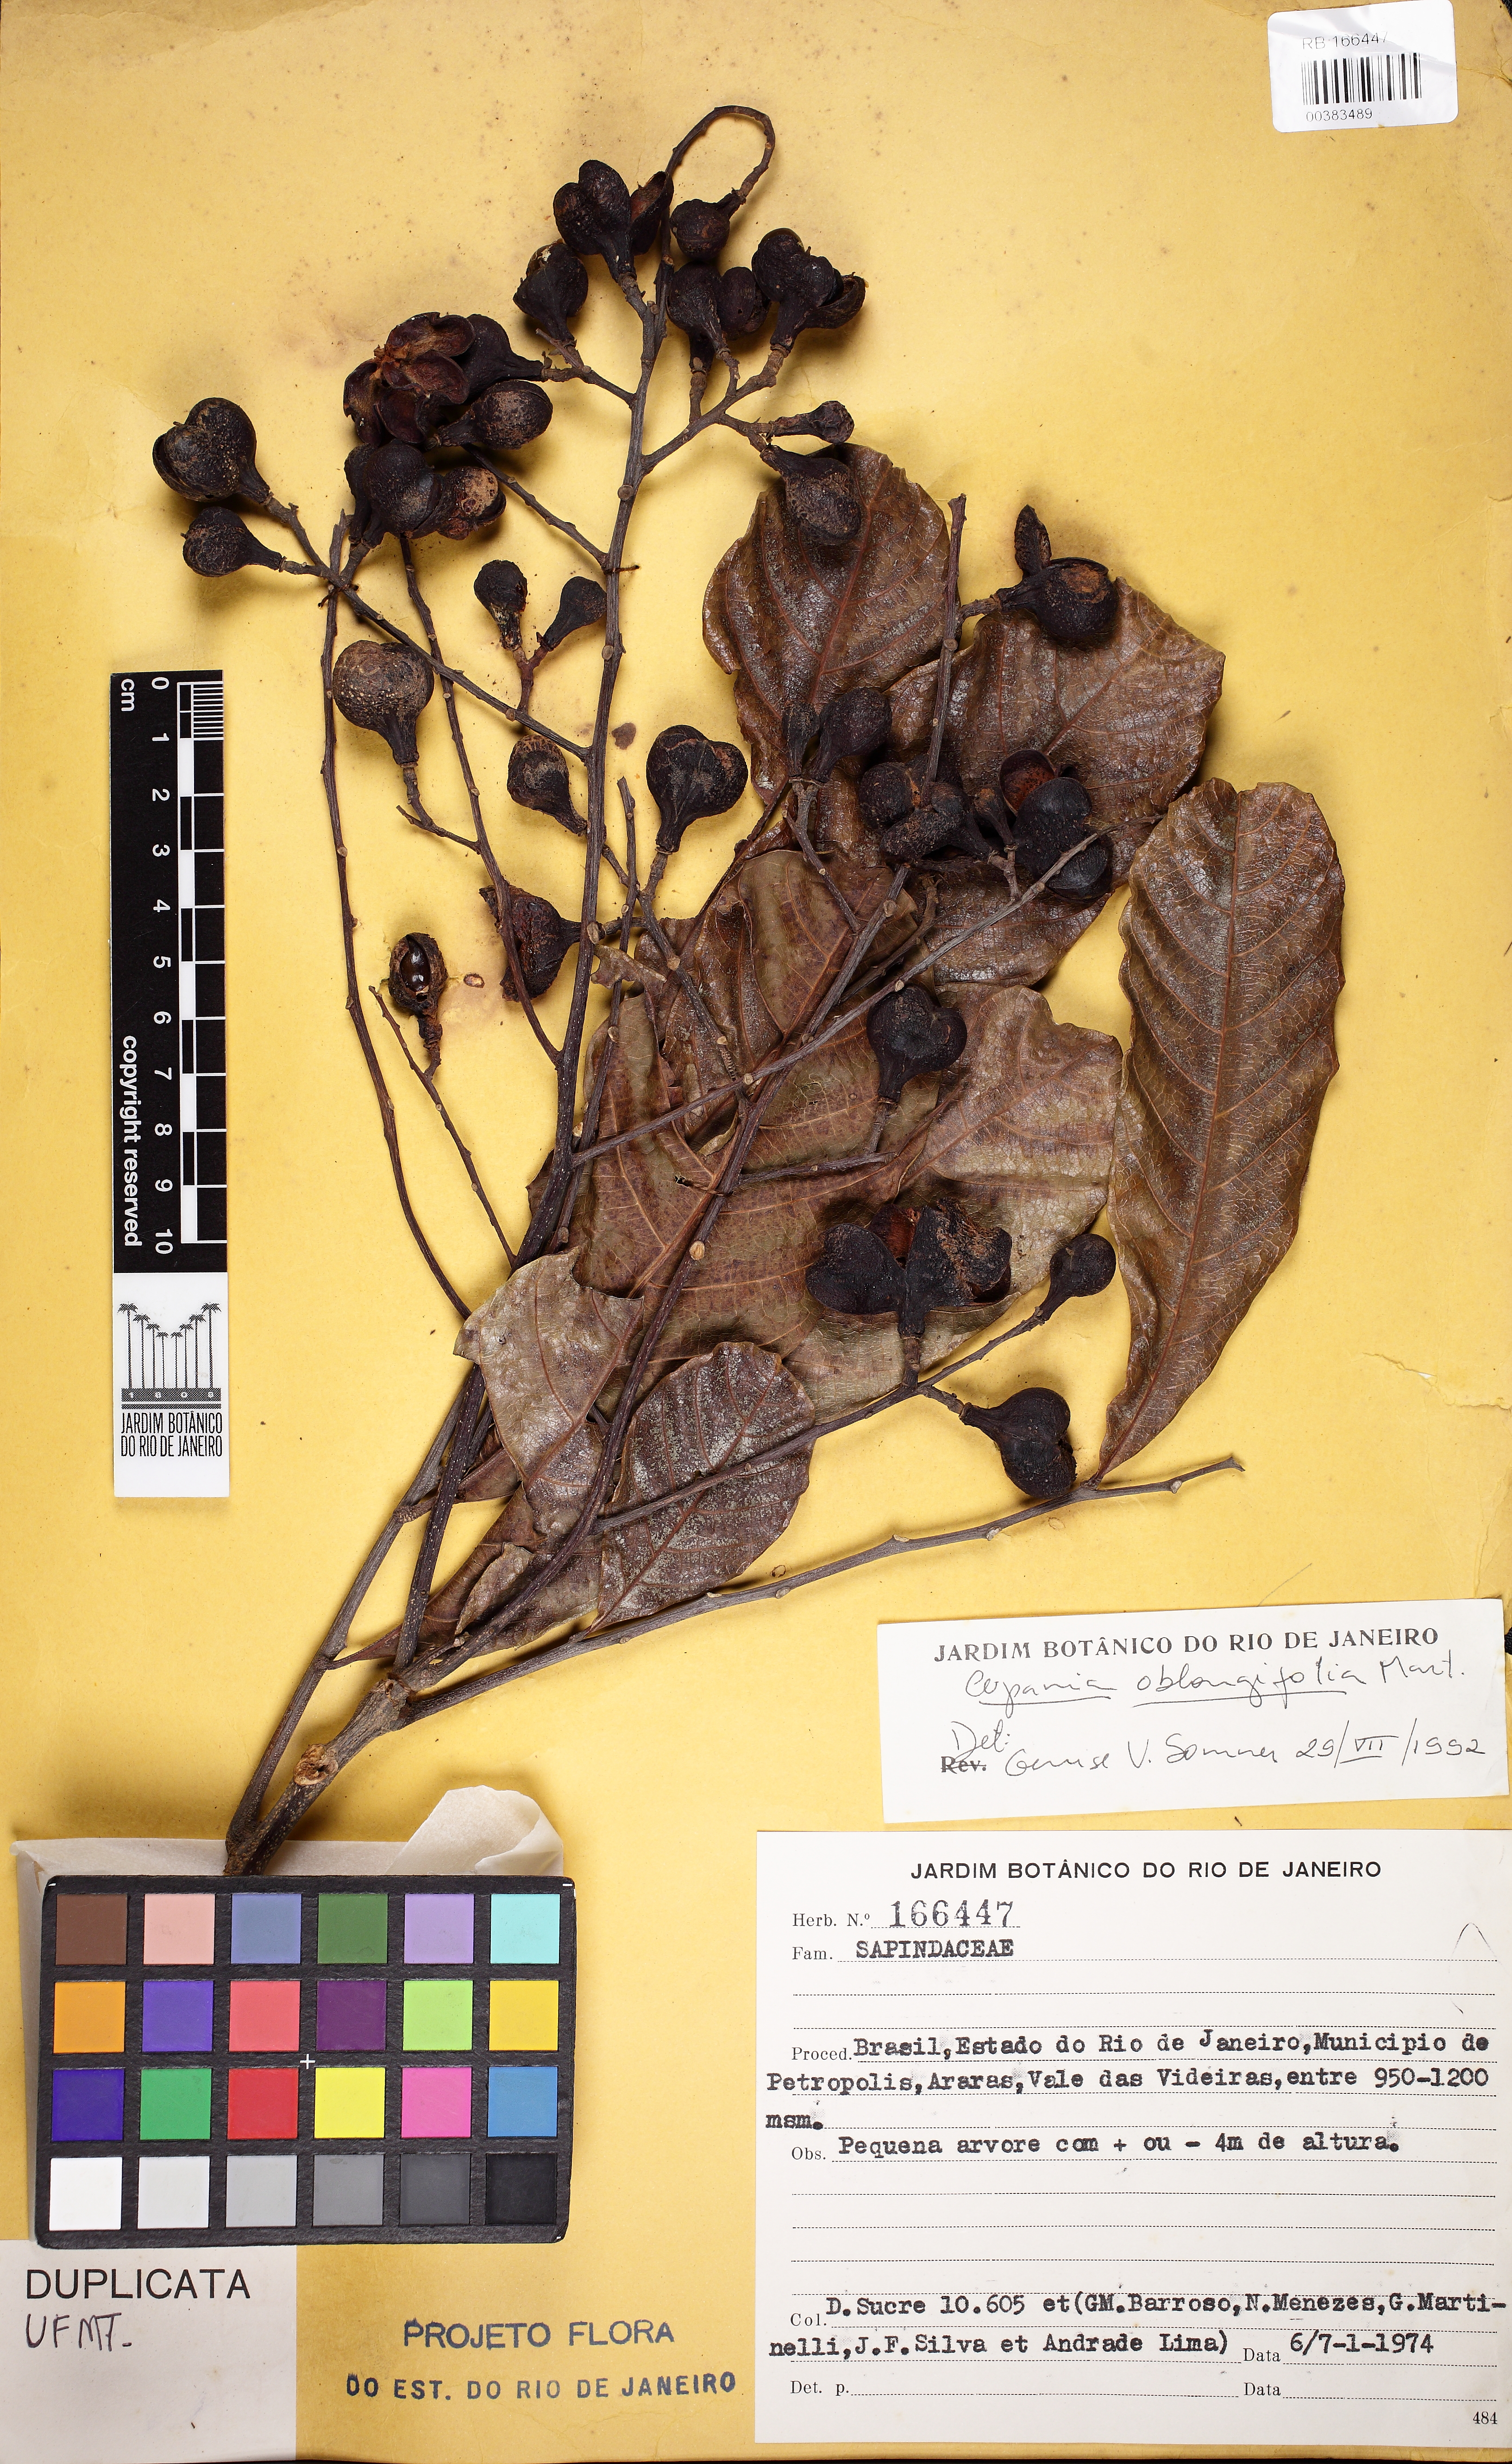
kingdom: Plantae
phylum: Tracheophyta
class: Magnoliopsida
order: Sapindales
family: Sapindaceae
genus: Cupania
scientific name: Cupania oblongifolia
